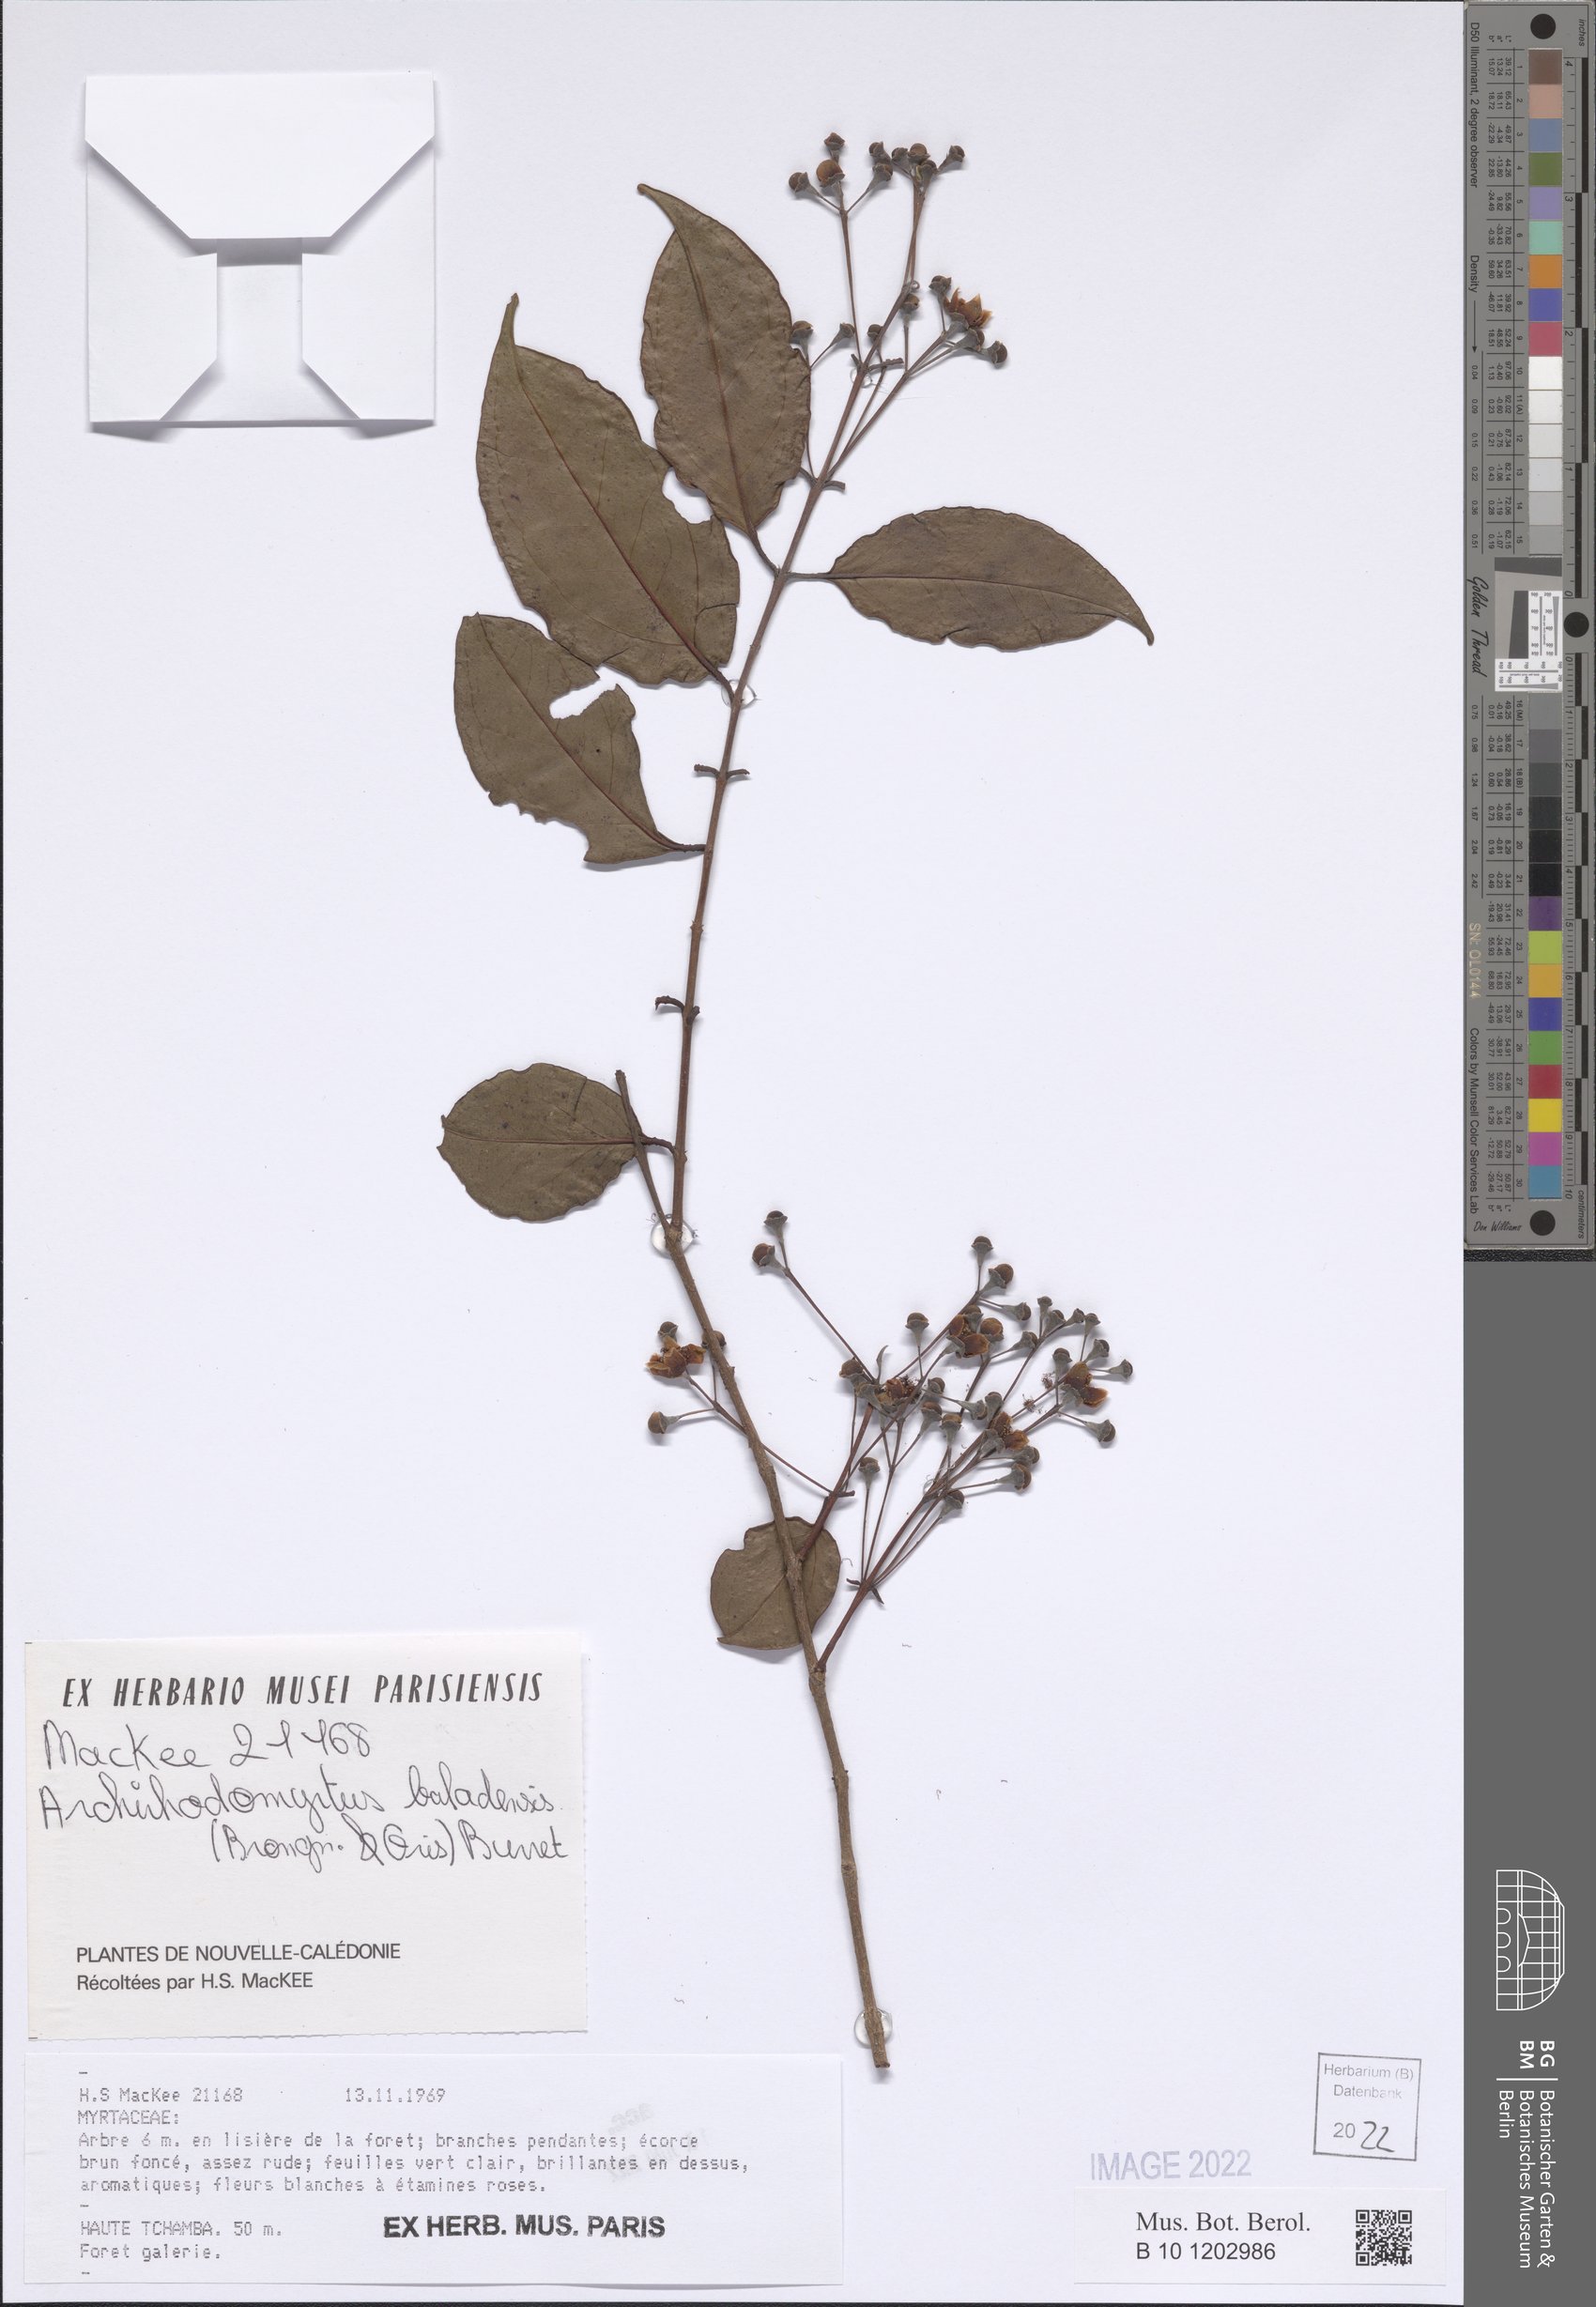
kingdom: Plantae
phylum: Tracheophyta
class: Magnoliopsida
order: Myrtales
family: Myrtaceae
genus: Archirhodomyrtus
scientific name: Archirhodomyrtus baladensis
